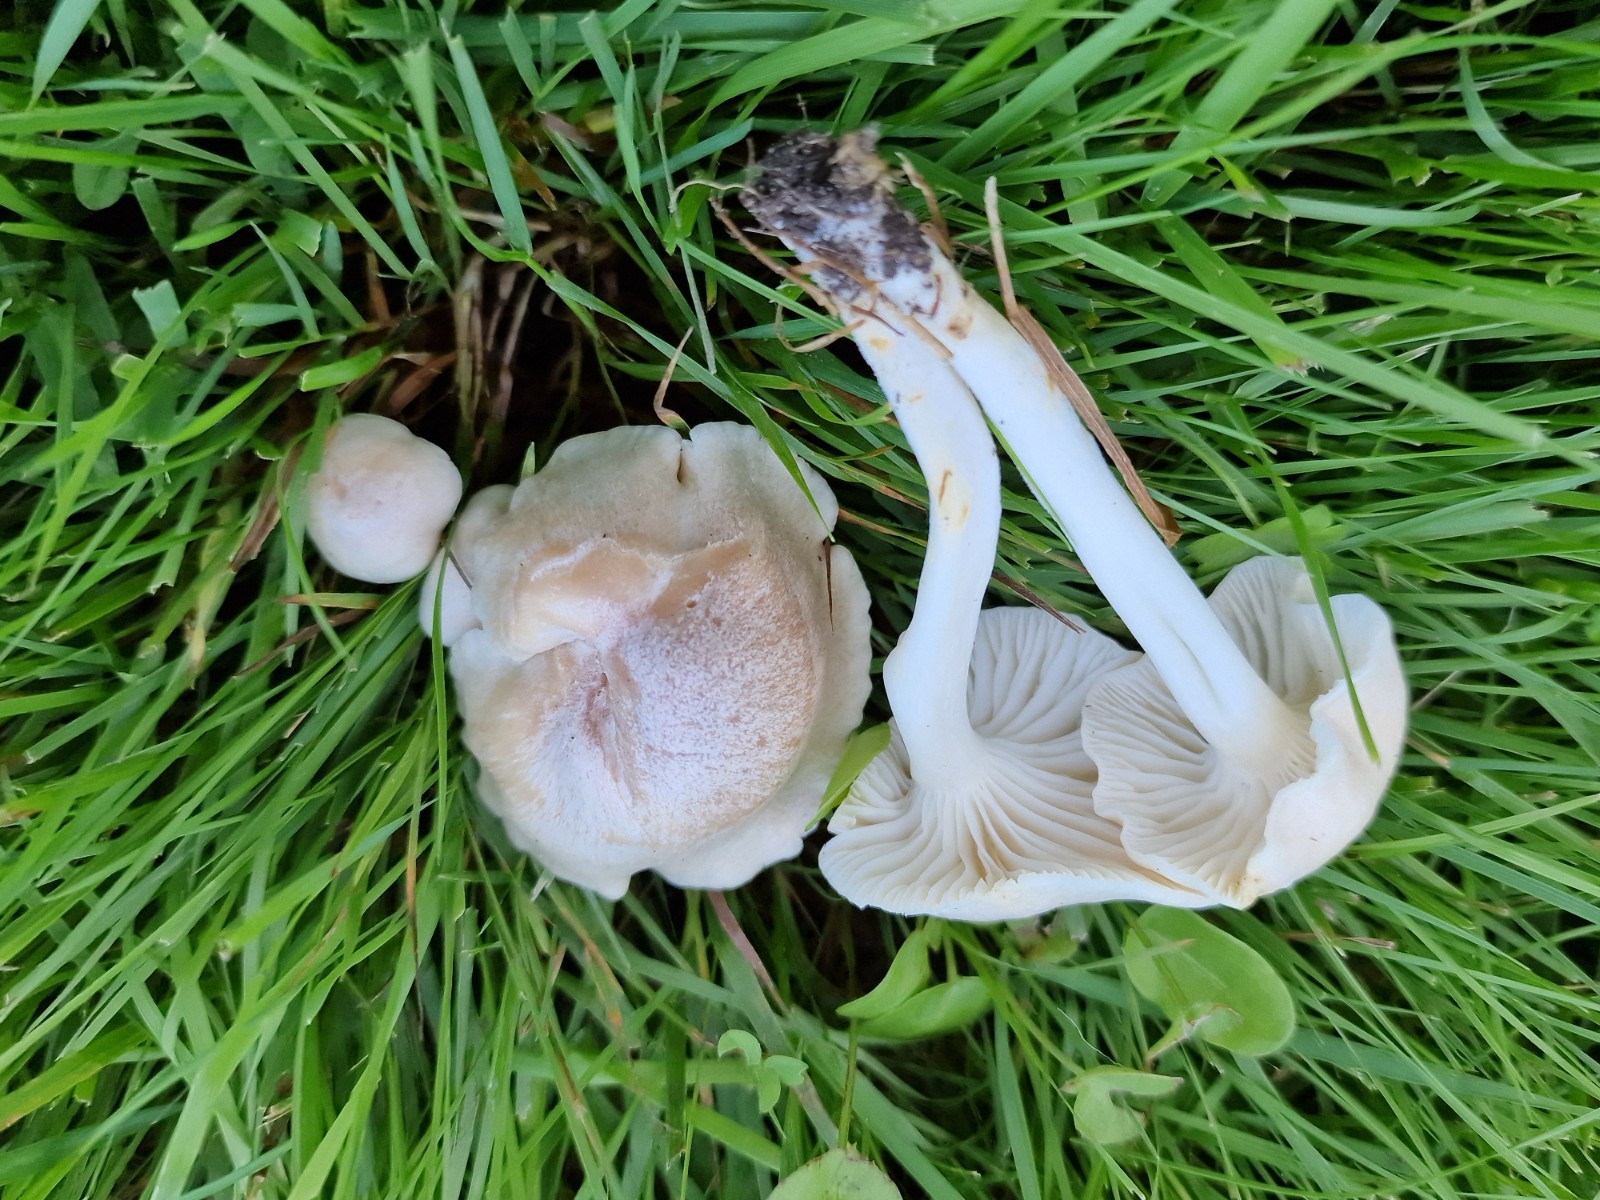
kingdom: Fungi
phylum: Basidiomycota
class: Agaricomycetes
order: Agaricales
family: Hygrophoraceae
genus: Cuphophyllus
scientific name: Cuphophyllus
